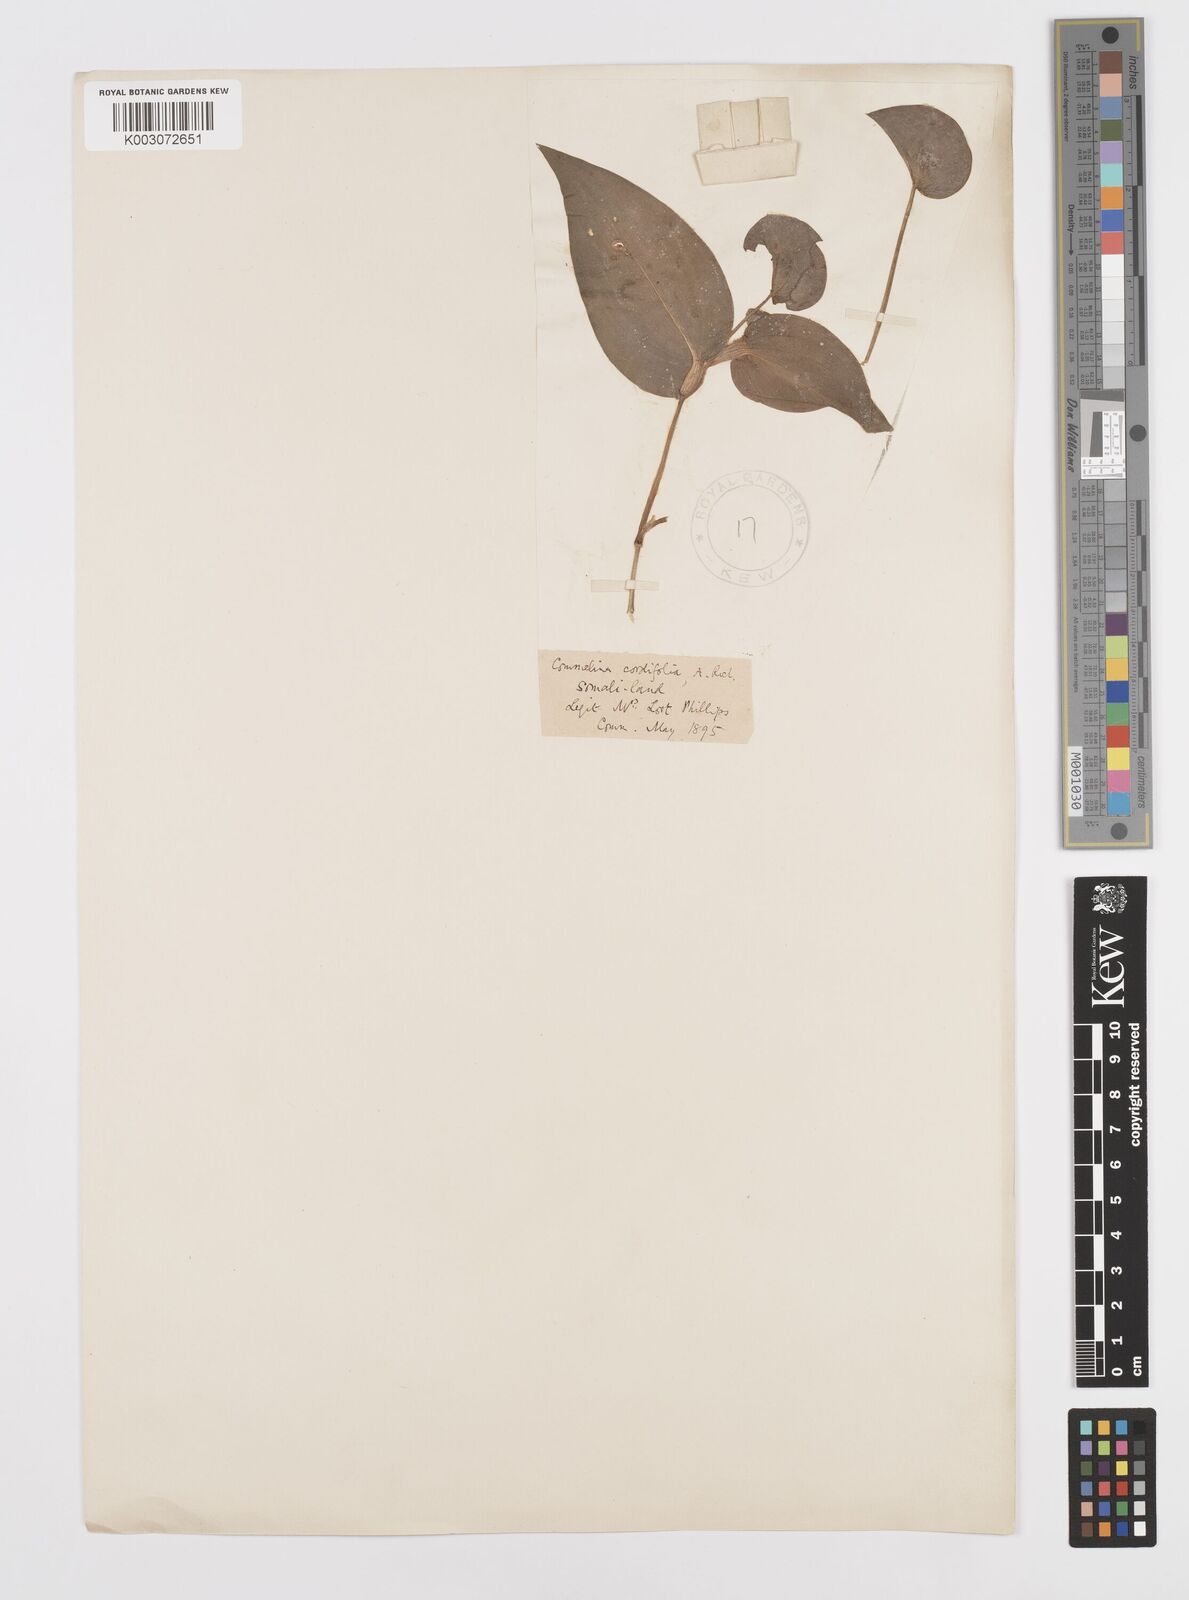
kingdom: Plantae
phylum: Tracheophyta
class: Liliopsida
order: Commelinales
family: Commelinaceae
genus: Commelina
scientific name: Commelina stefaniniana
